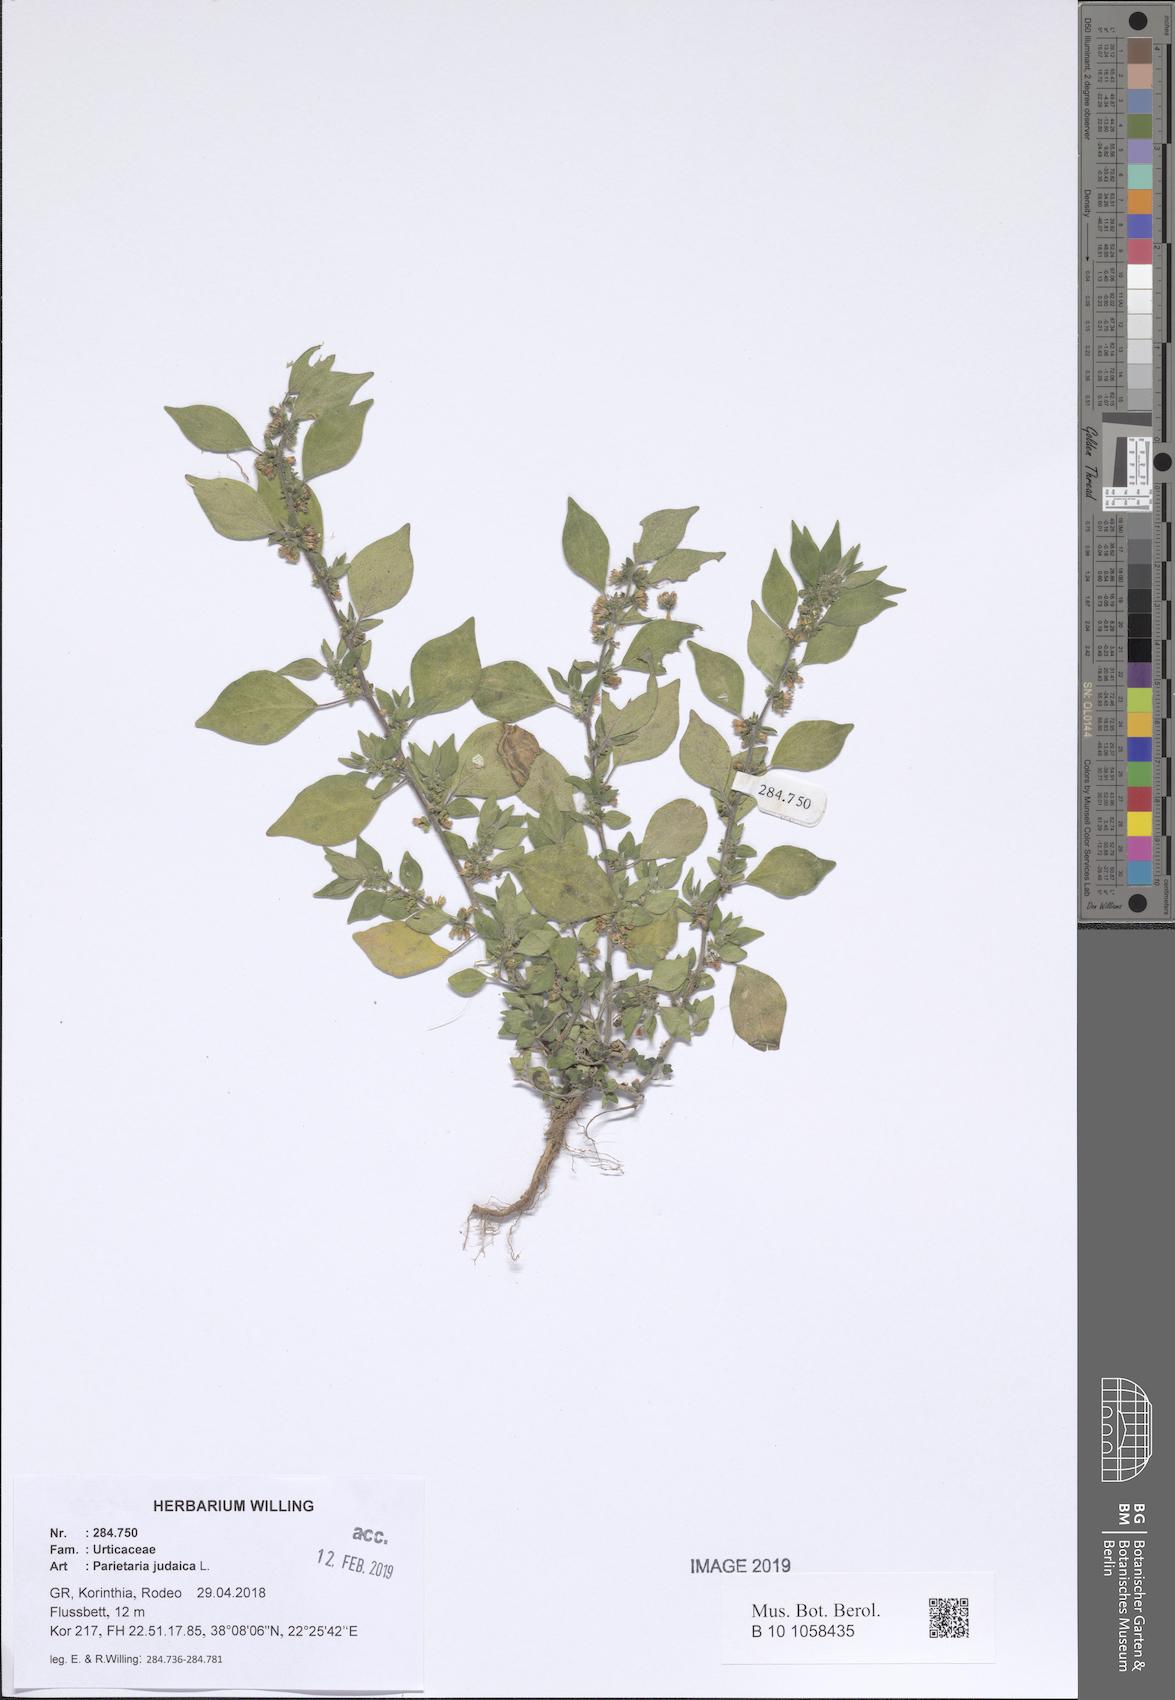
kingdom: Plantae
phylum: Tracheophyta
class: Magnoliopsida
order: Rosales
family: Urticaceae
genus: Parietaria
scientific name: Parietaria judaica
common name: Pellitory-of-the-wall
